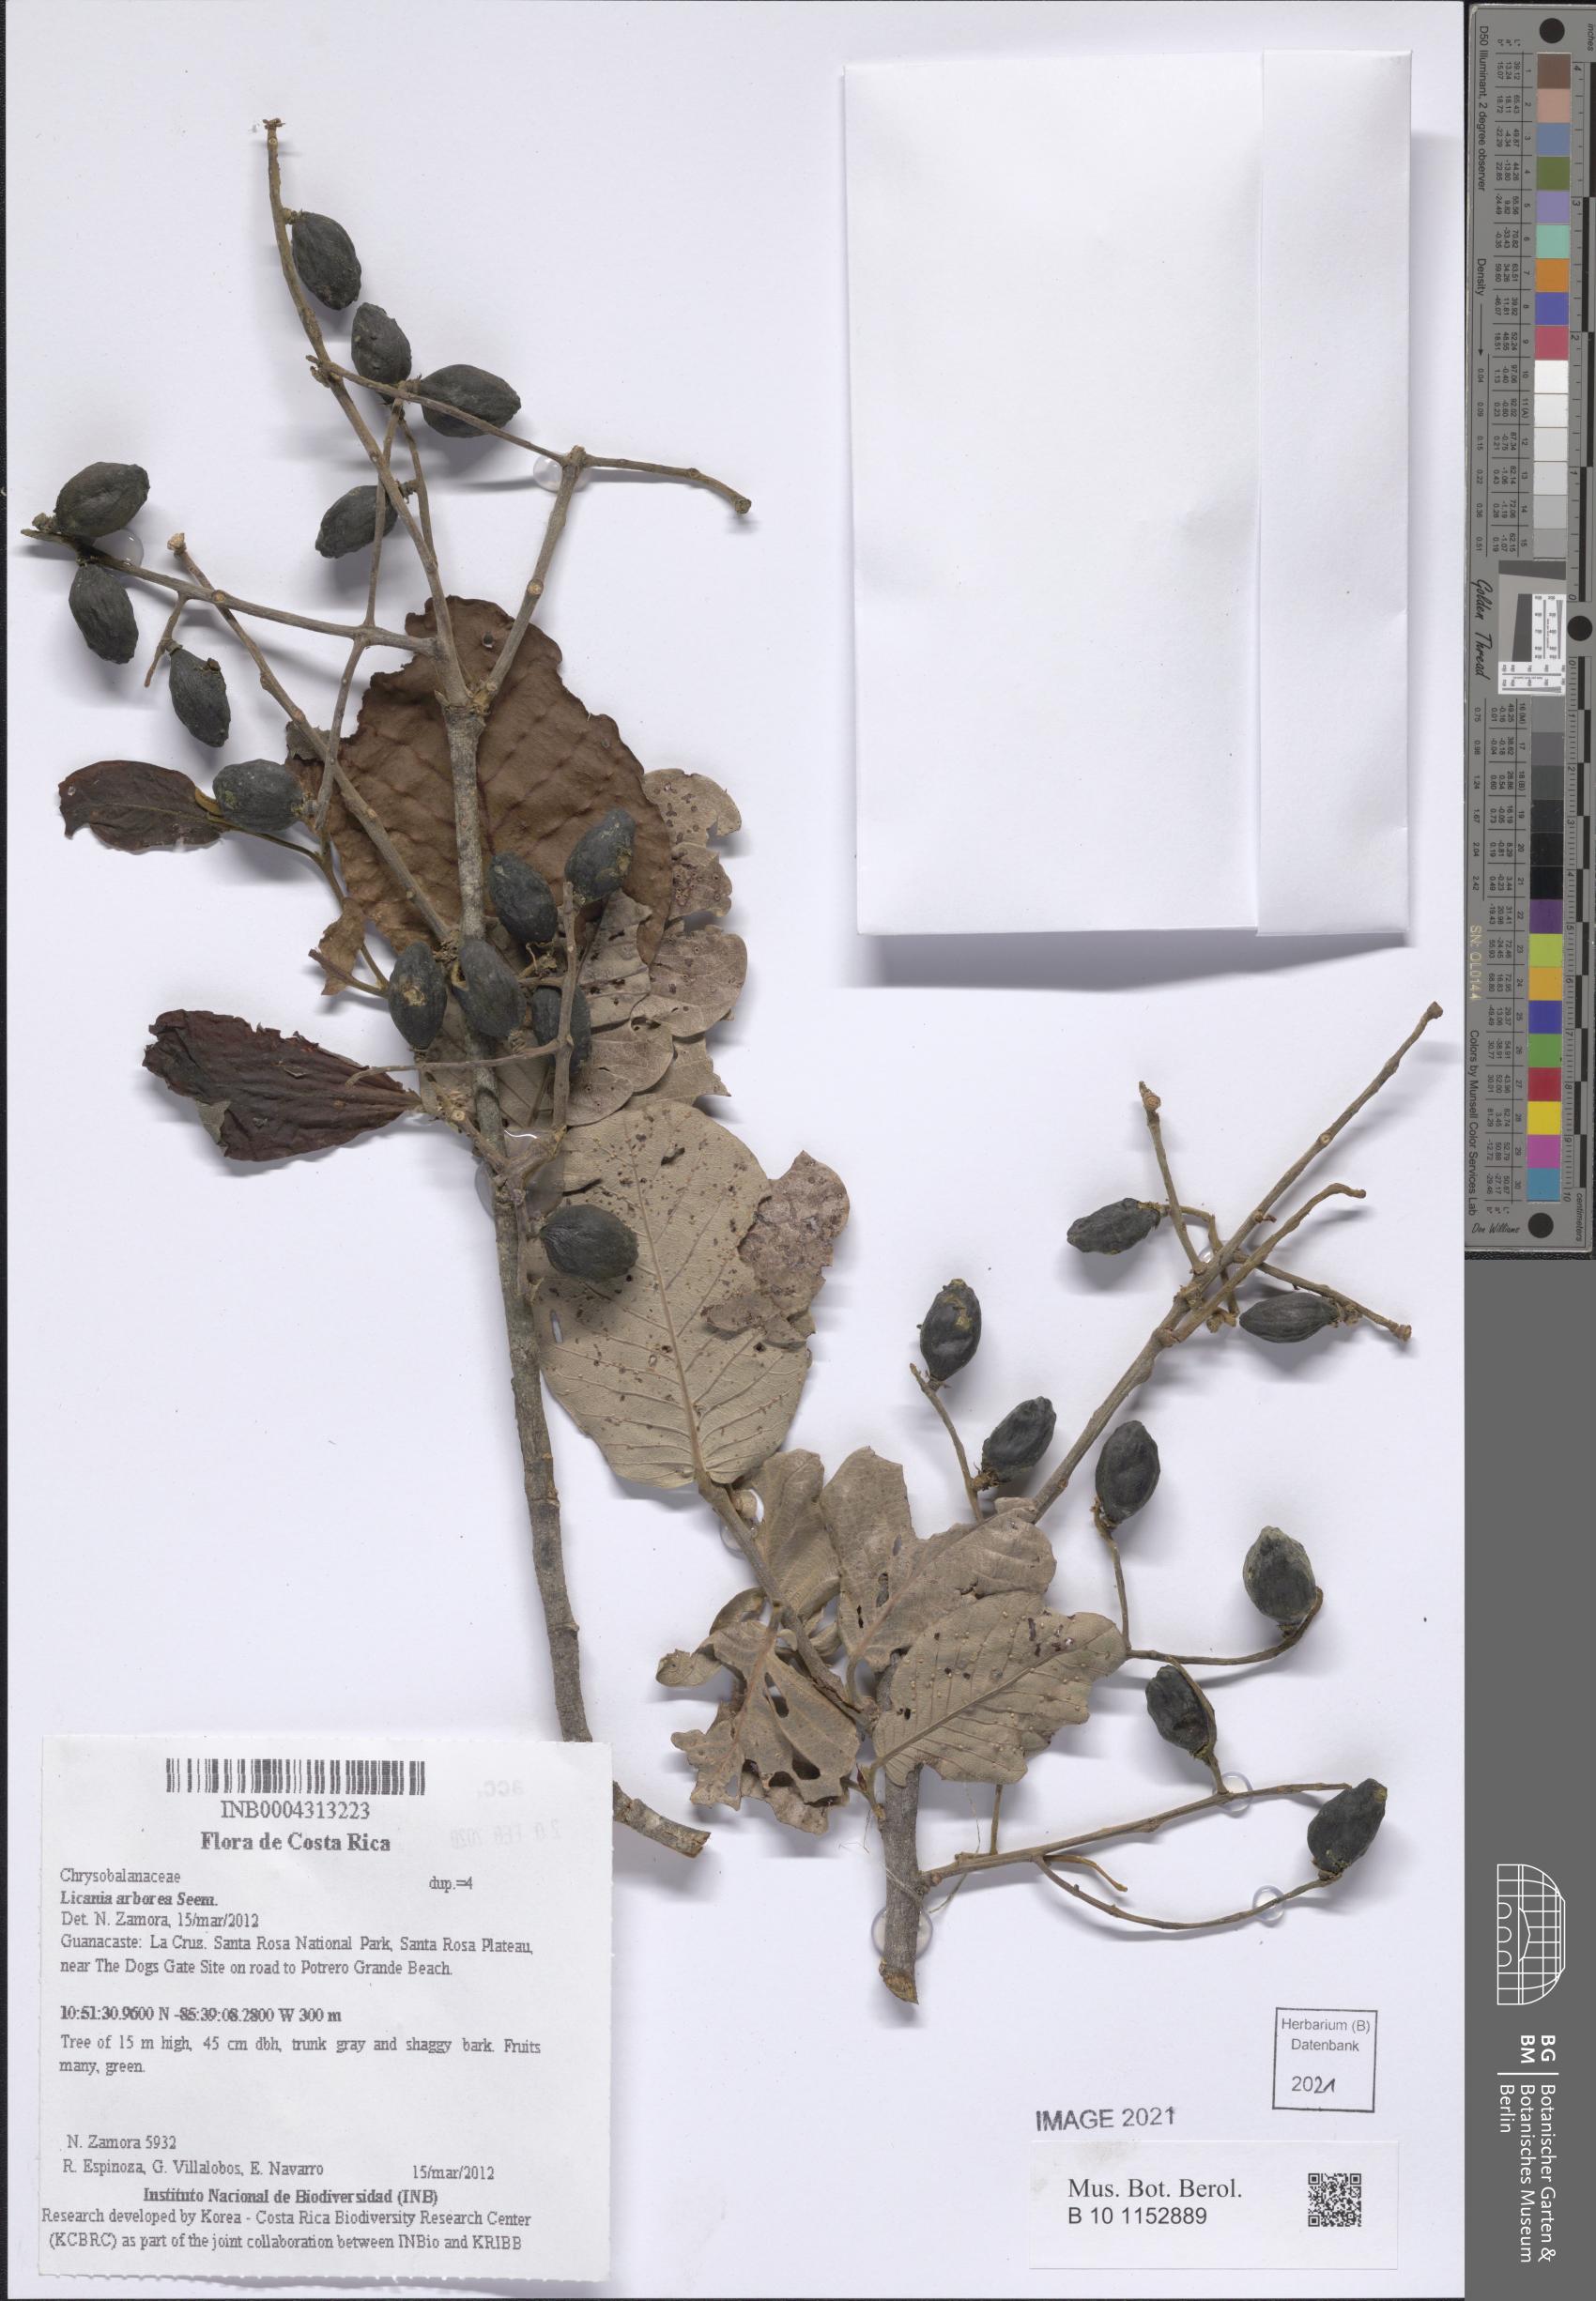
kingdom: Plantae
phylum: Tracheophyta
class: Magnoliopsida
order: Malpighiales
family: Chrysobalanaceae
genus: Microdesmia
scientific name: Microdesmia arborea
